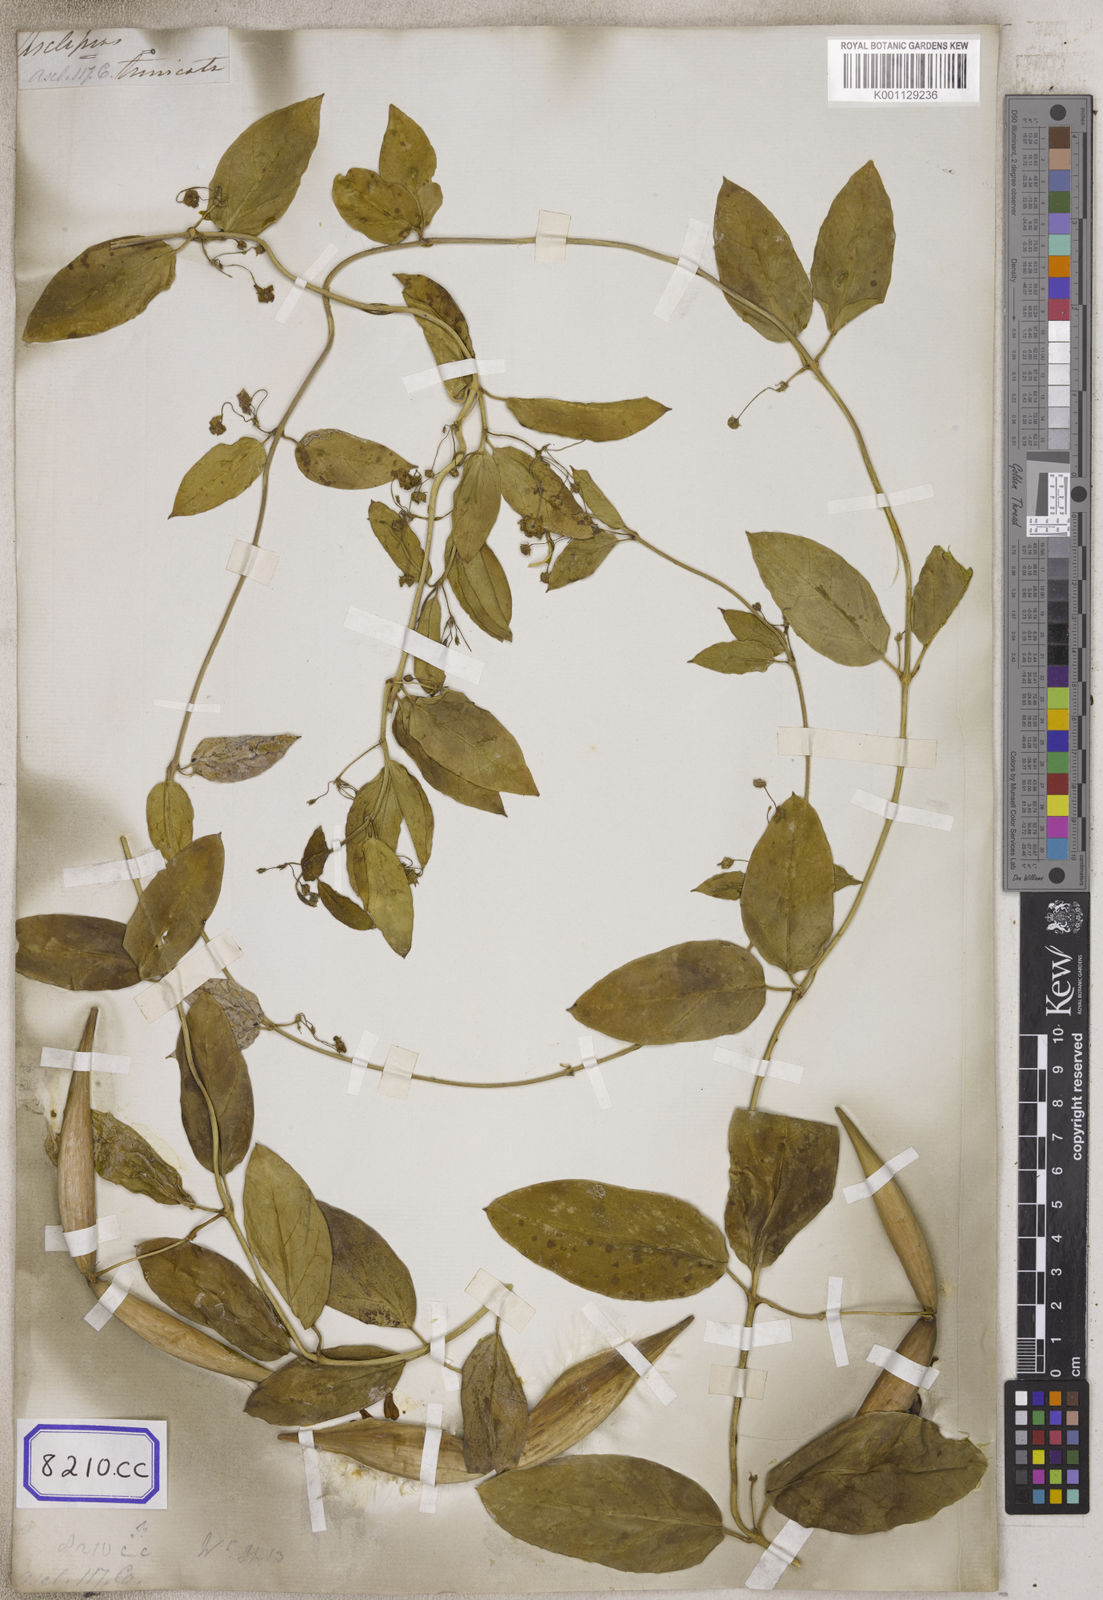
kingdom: Plantae
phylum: Tracheophyta
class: Magnoliopsida
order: Gentianales
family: Apocynaceae
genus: Vincetoxicum
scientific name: Vincetoxicum indicum
